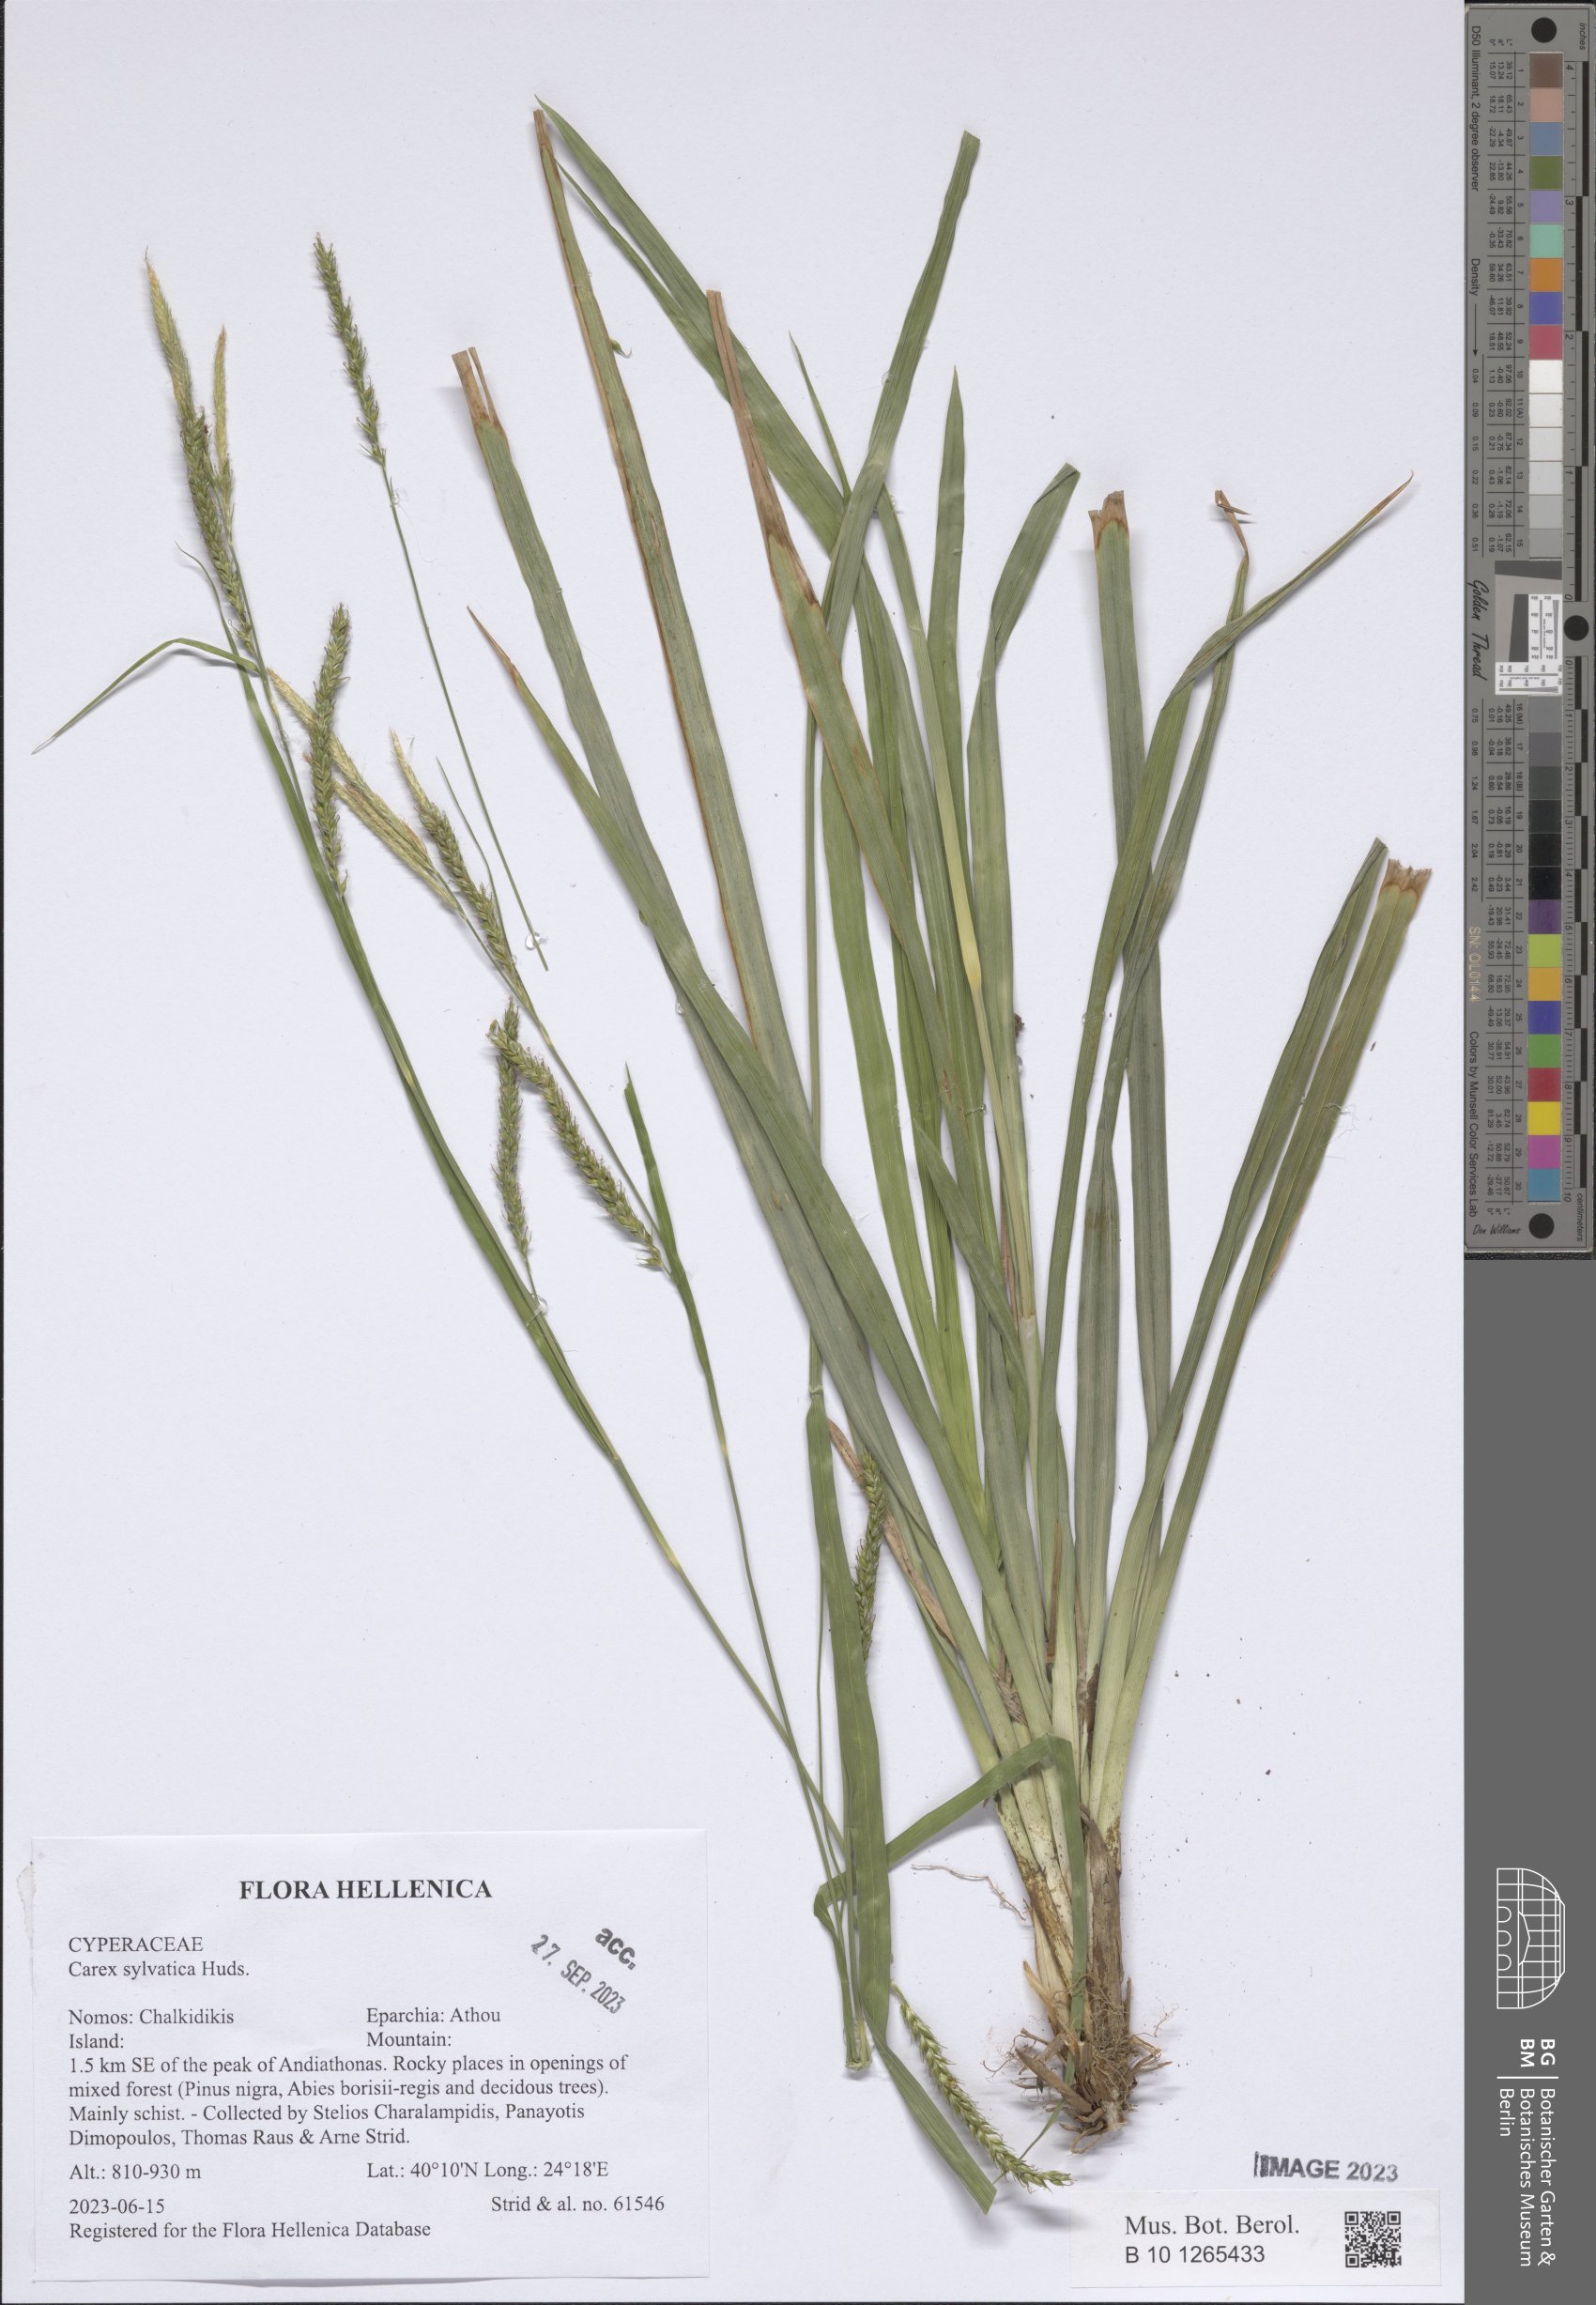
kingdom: Plantae
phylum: Tracheophyta
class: Liliopsida
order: Poales
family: Cyperaceae
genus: Carex
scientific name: Carex sylvatica
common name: Wood-sedge
